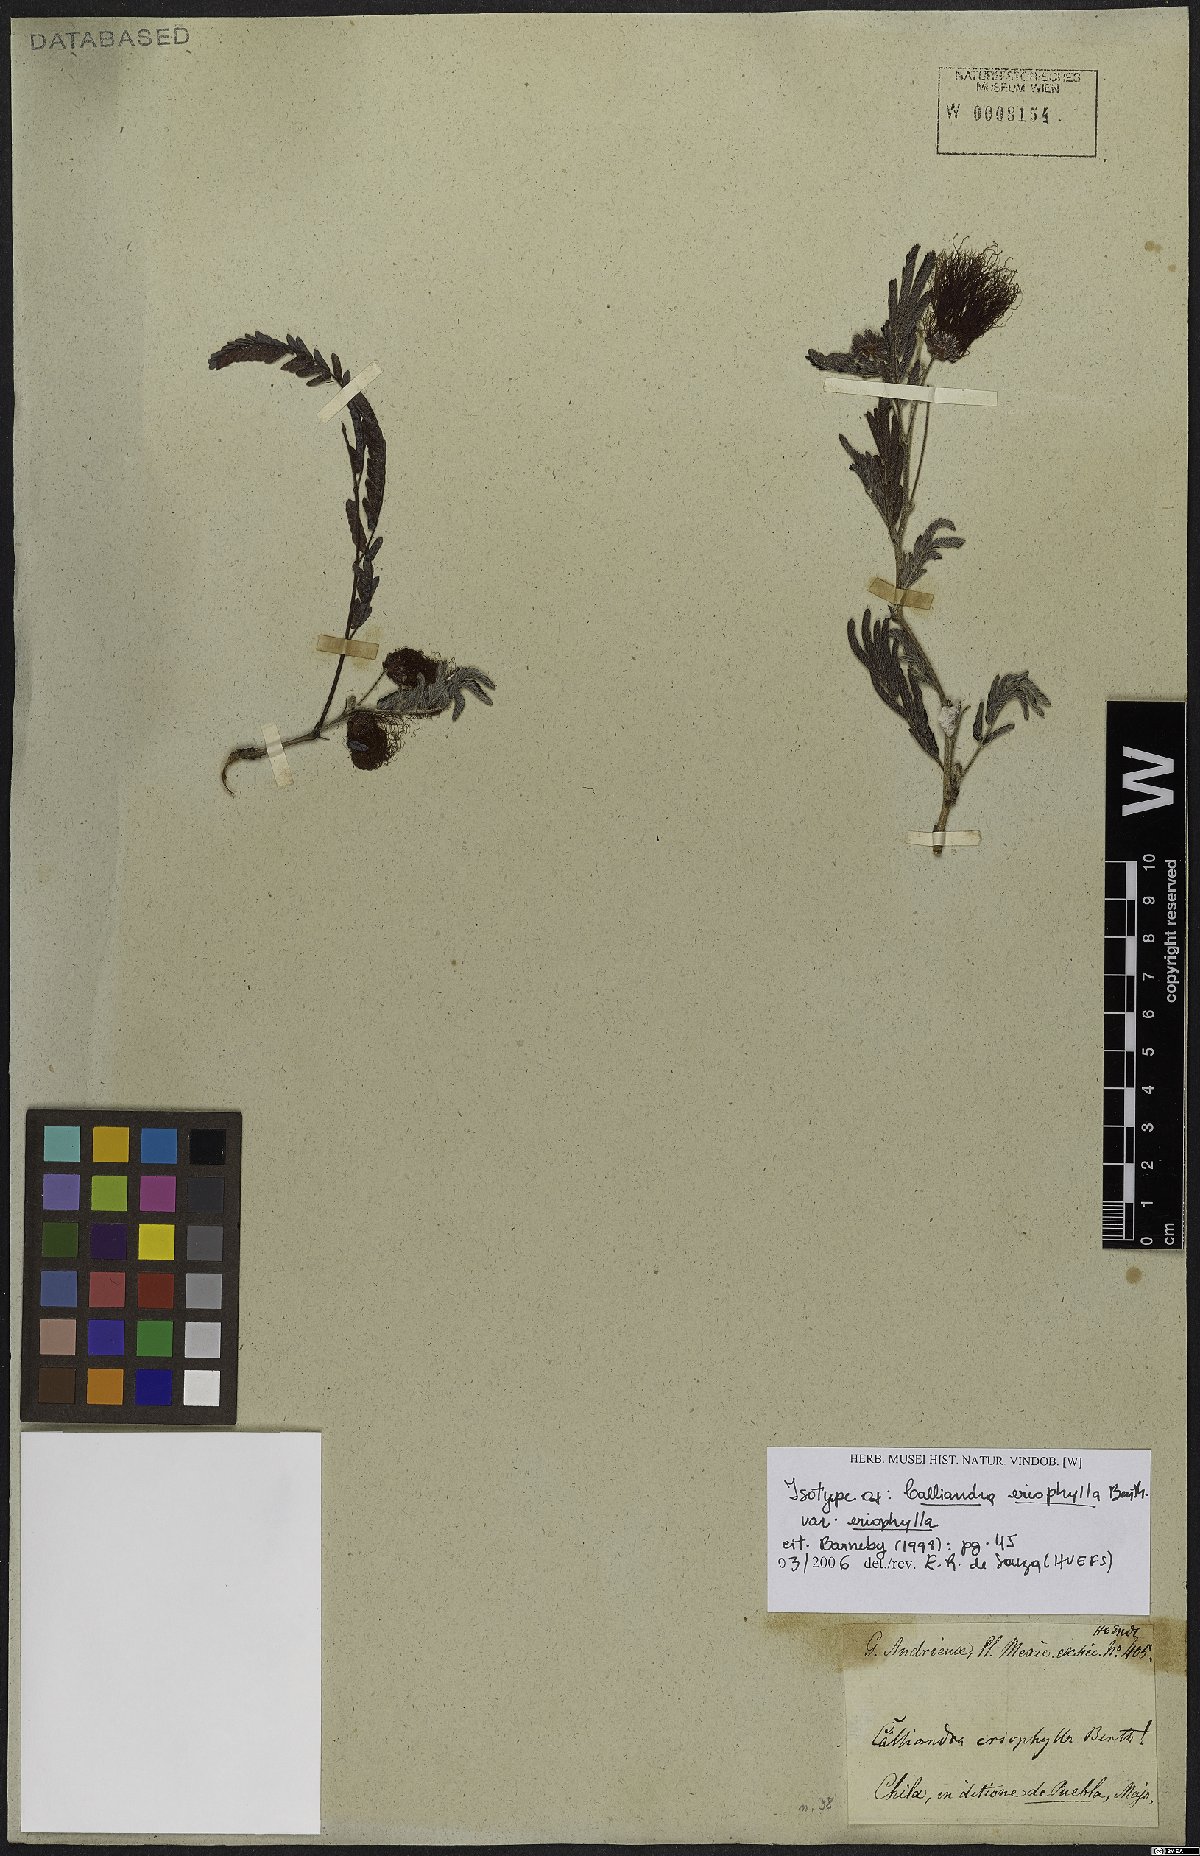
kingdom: Plantae
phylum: Tracheophyta
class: Magnoliopsida
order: Fabales
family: Fabaceae
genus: Calliandra
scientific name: Calliandra eriophylla
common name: Fairy-duster
